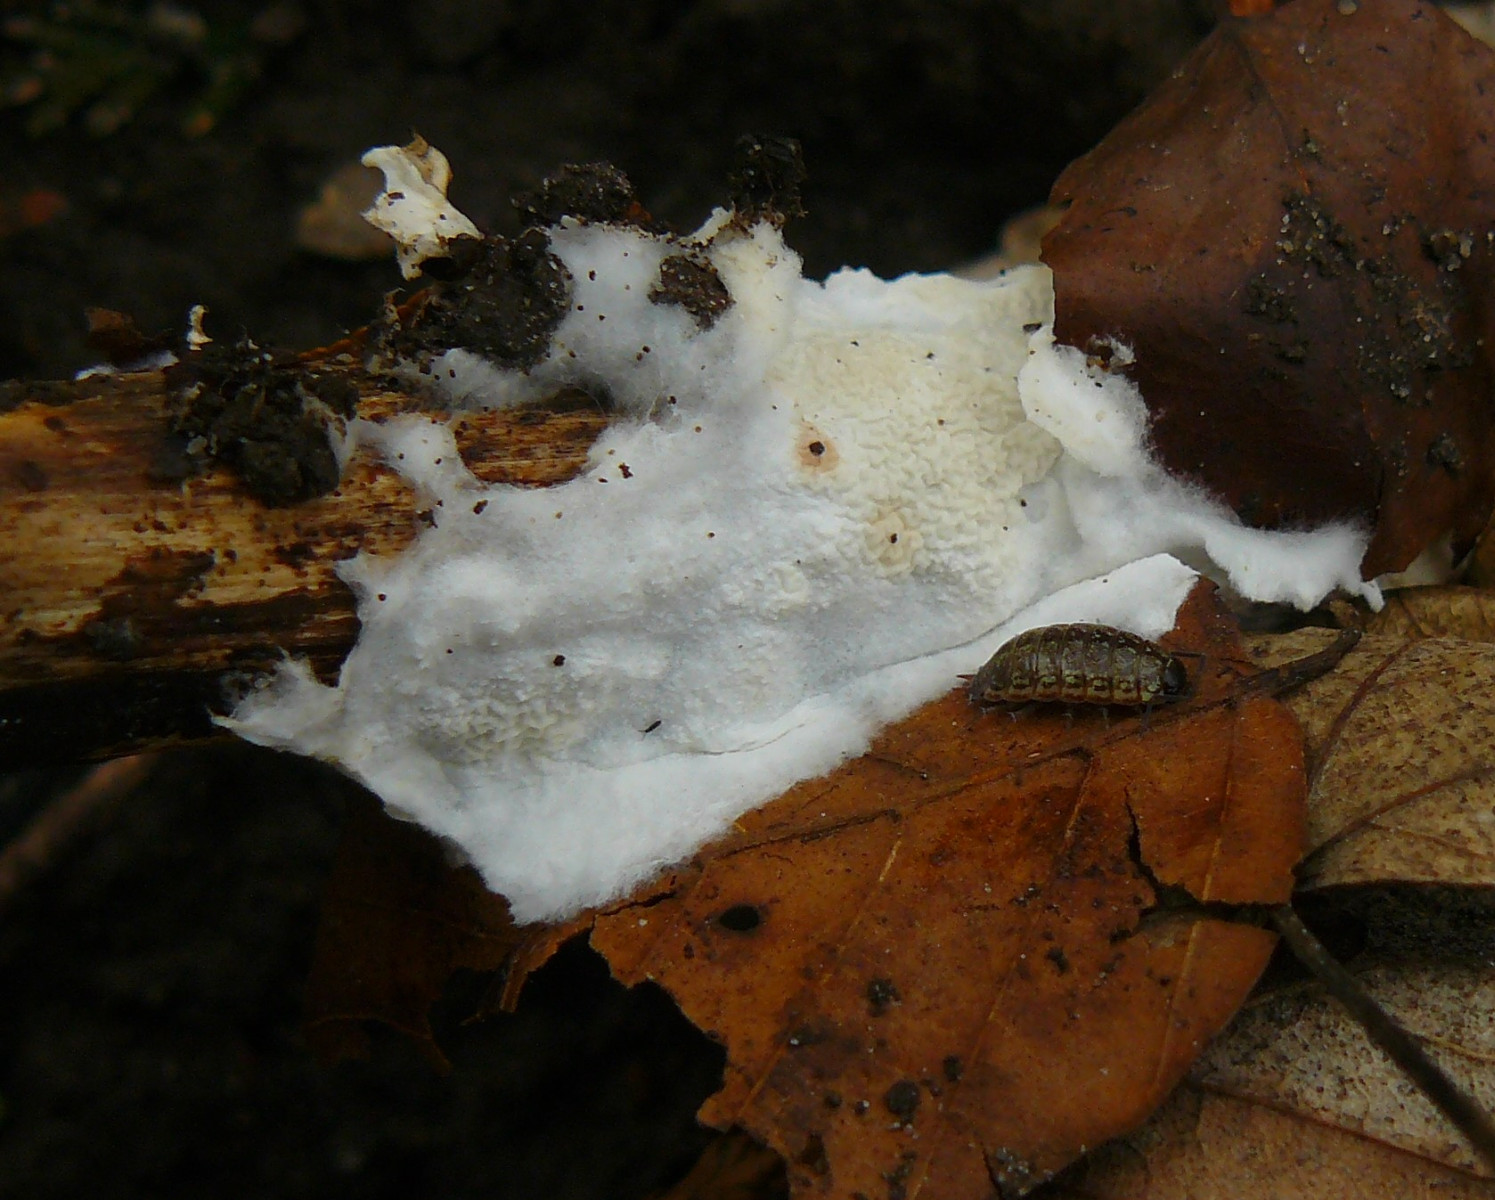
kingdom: Fungi
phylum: Basidiomycota
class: Agaricomycetes
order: Polyporales
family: Irpicaceae
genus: Byssomerulius
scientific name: Byssomerulius corium
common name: læder-åresvamp
